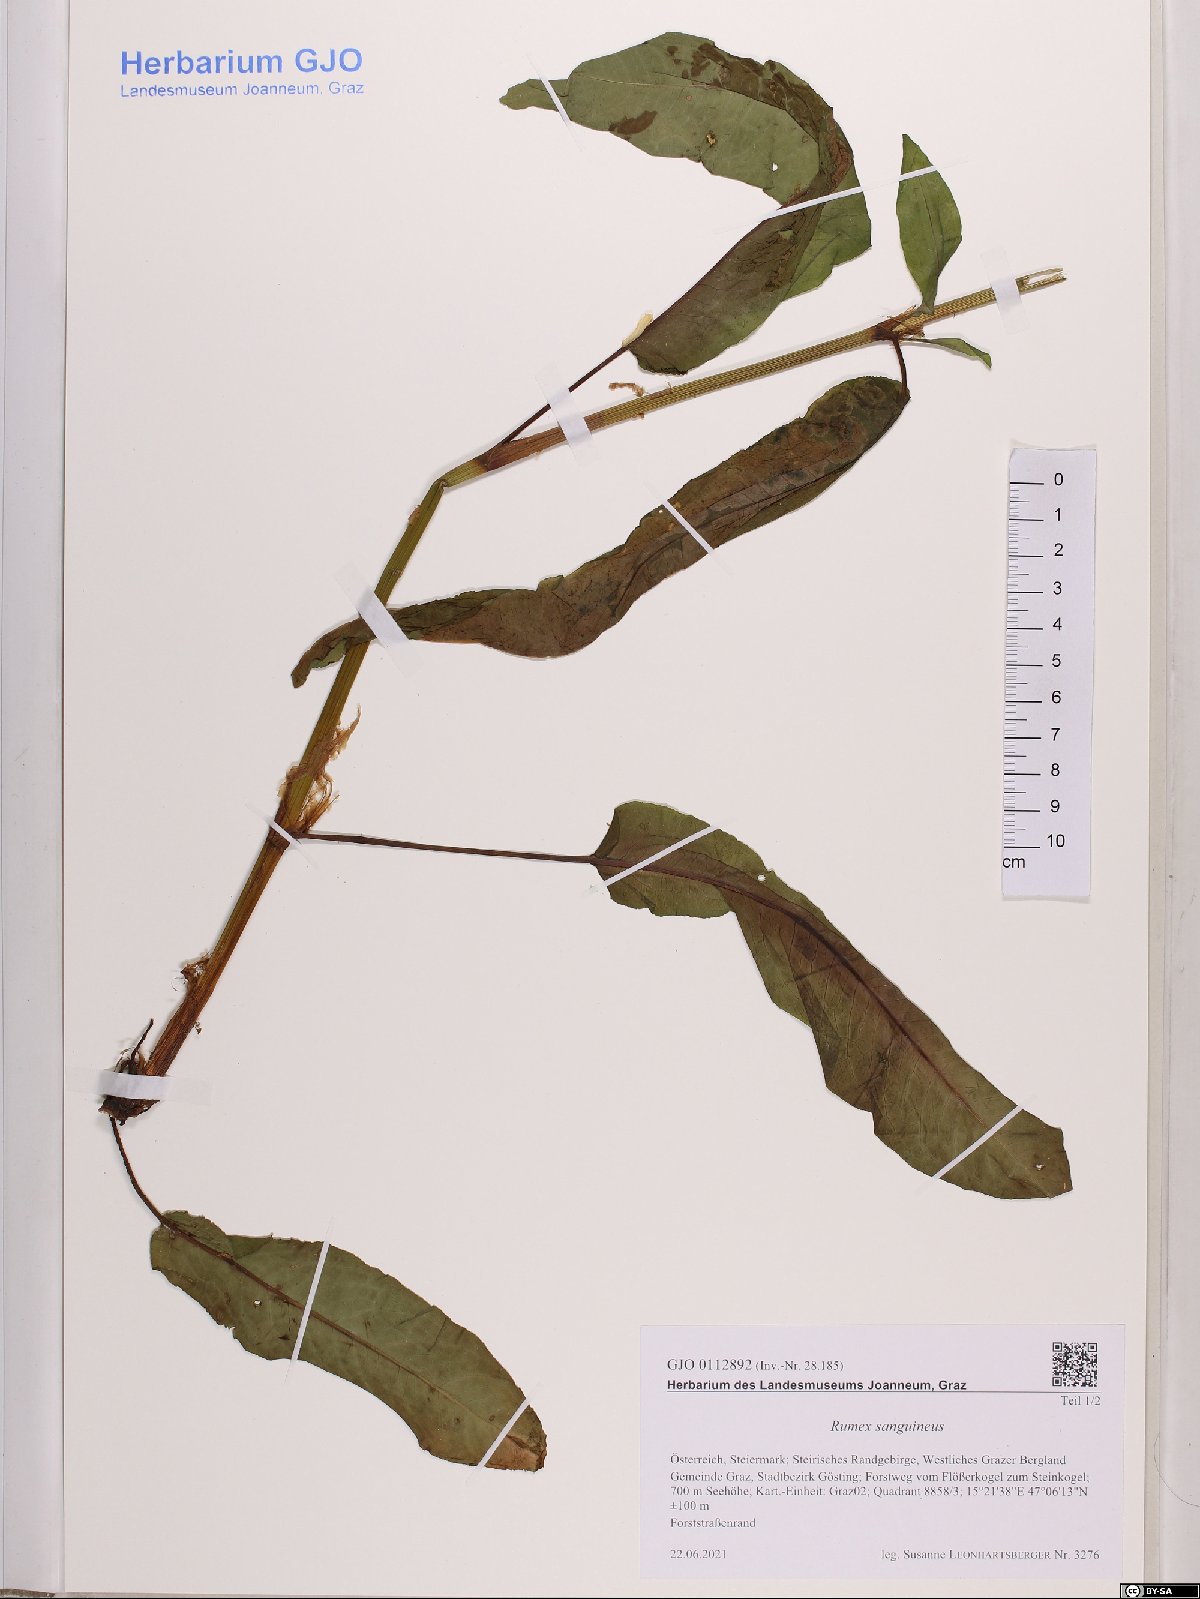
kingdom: Plantae
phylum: Tracheophyta
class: Magnoliopsida
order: Caryophyllales
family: Polygonaceae
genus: Rumex
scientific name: Rumex sanguineus
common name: Wood dock
